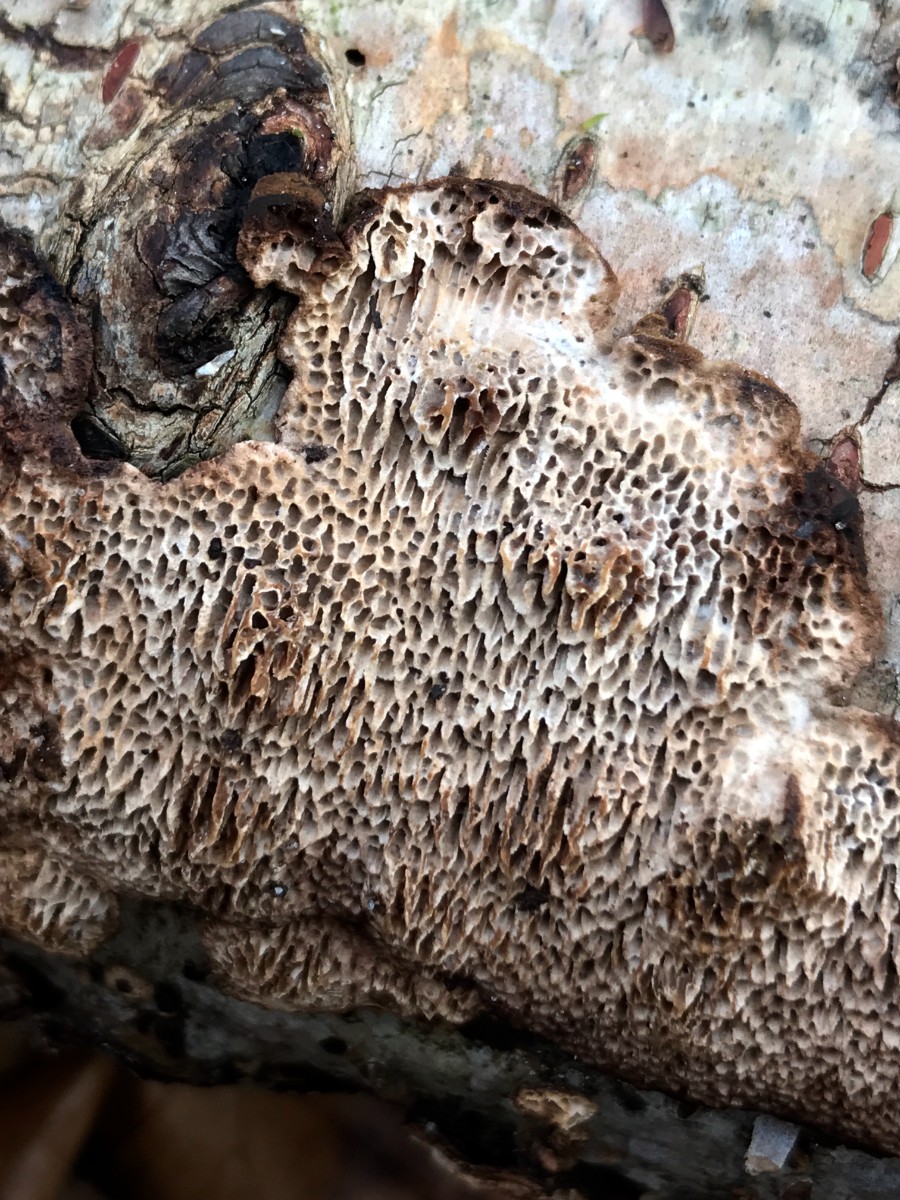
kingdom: Fungi
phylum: Basidiomycota
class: Agaricomycetes
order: Polyporales
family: Polyporaceae
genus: Podofomes
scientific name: Podofomes mollis
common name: blød begporesvamp
